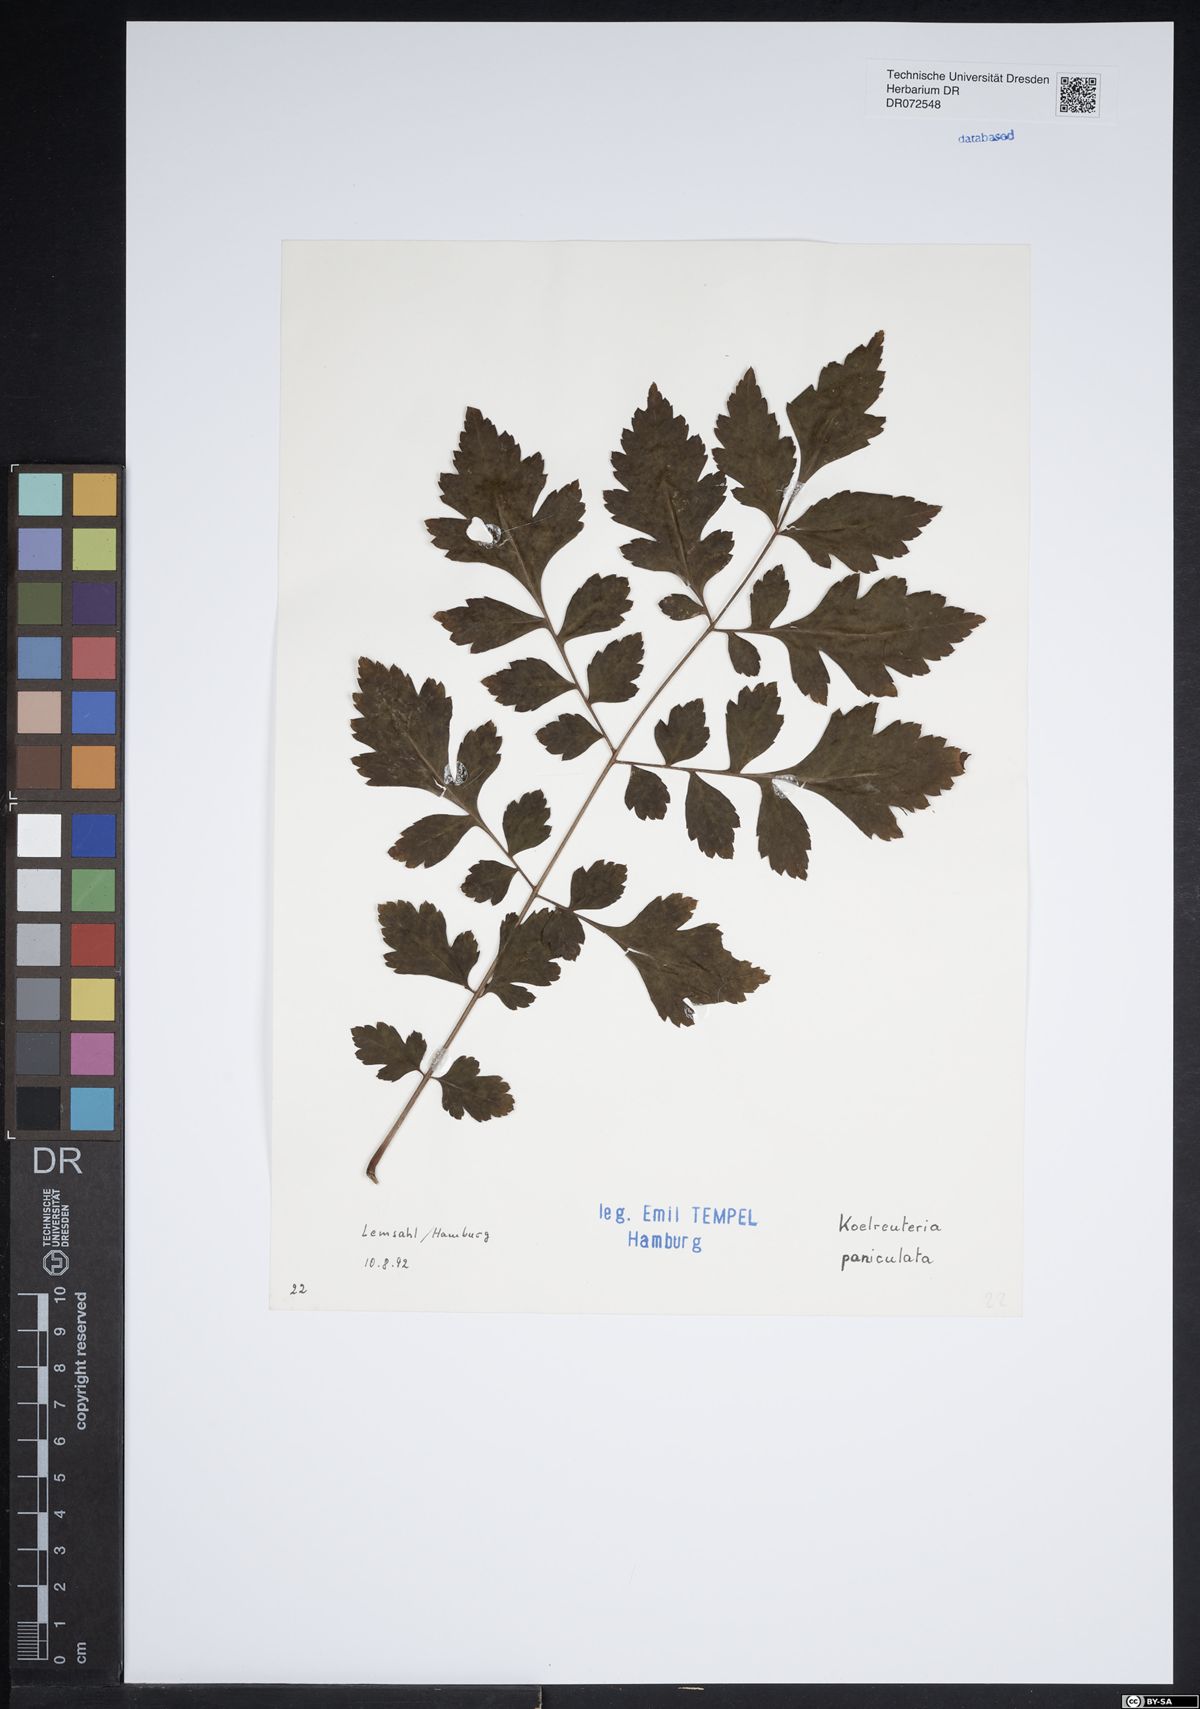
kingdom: Plantae
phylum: Tracheophyta
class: Magnoliopsida
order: Sapindales
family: Sapindaceae
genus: Koelreuteria
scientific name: Koelreuteria paniculata
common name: Pride-of-india
